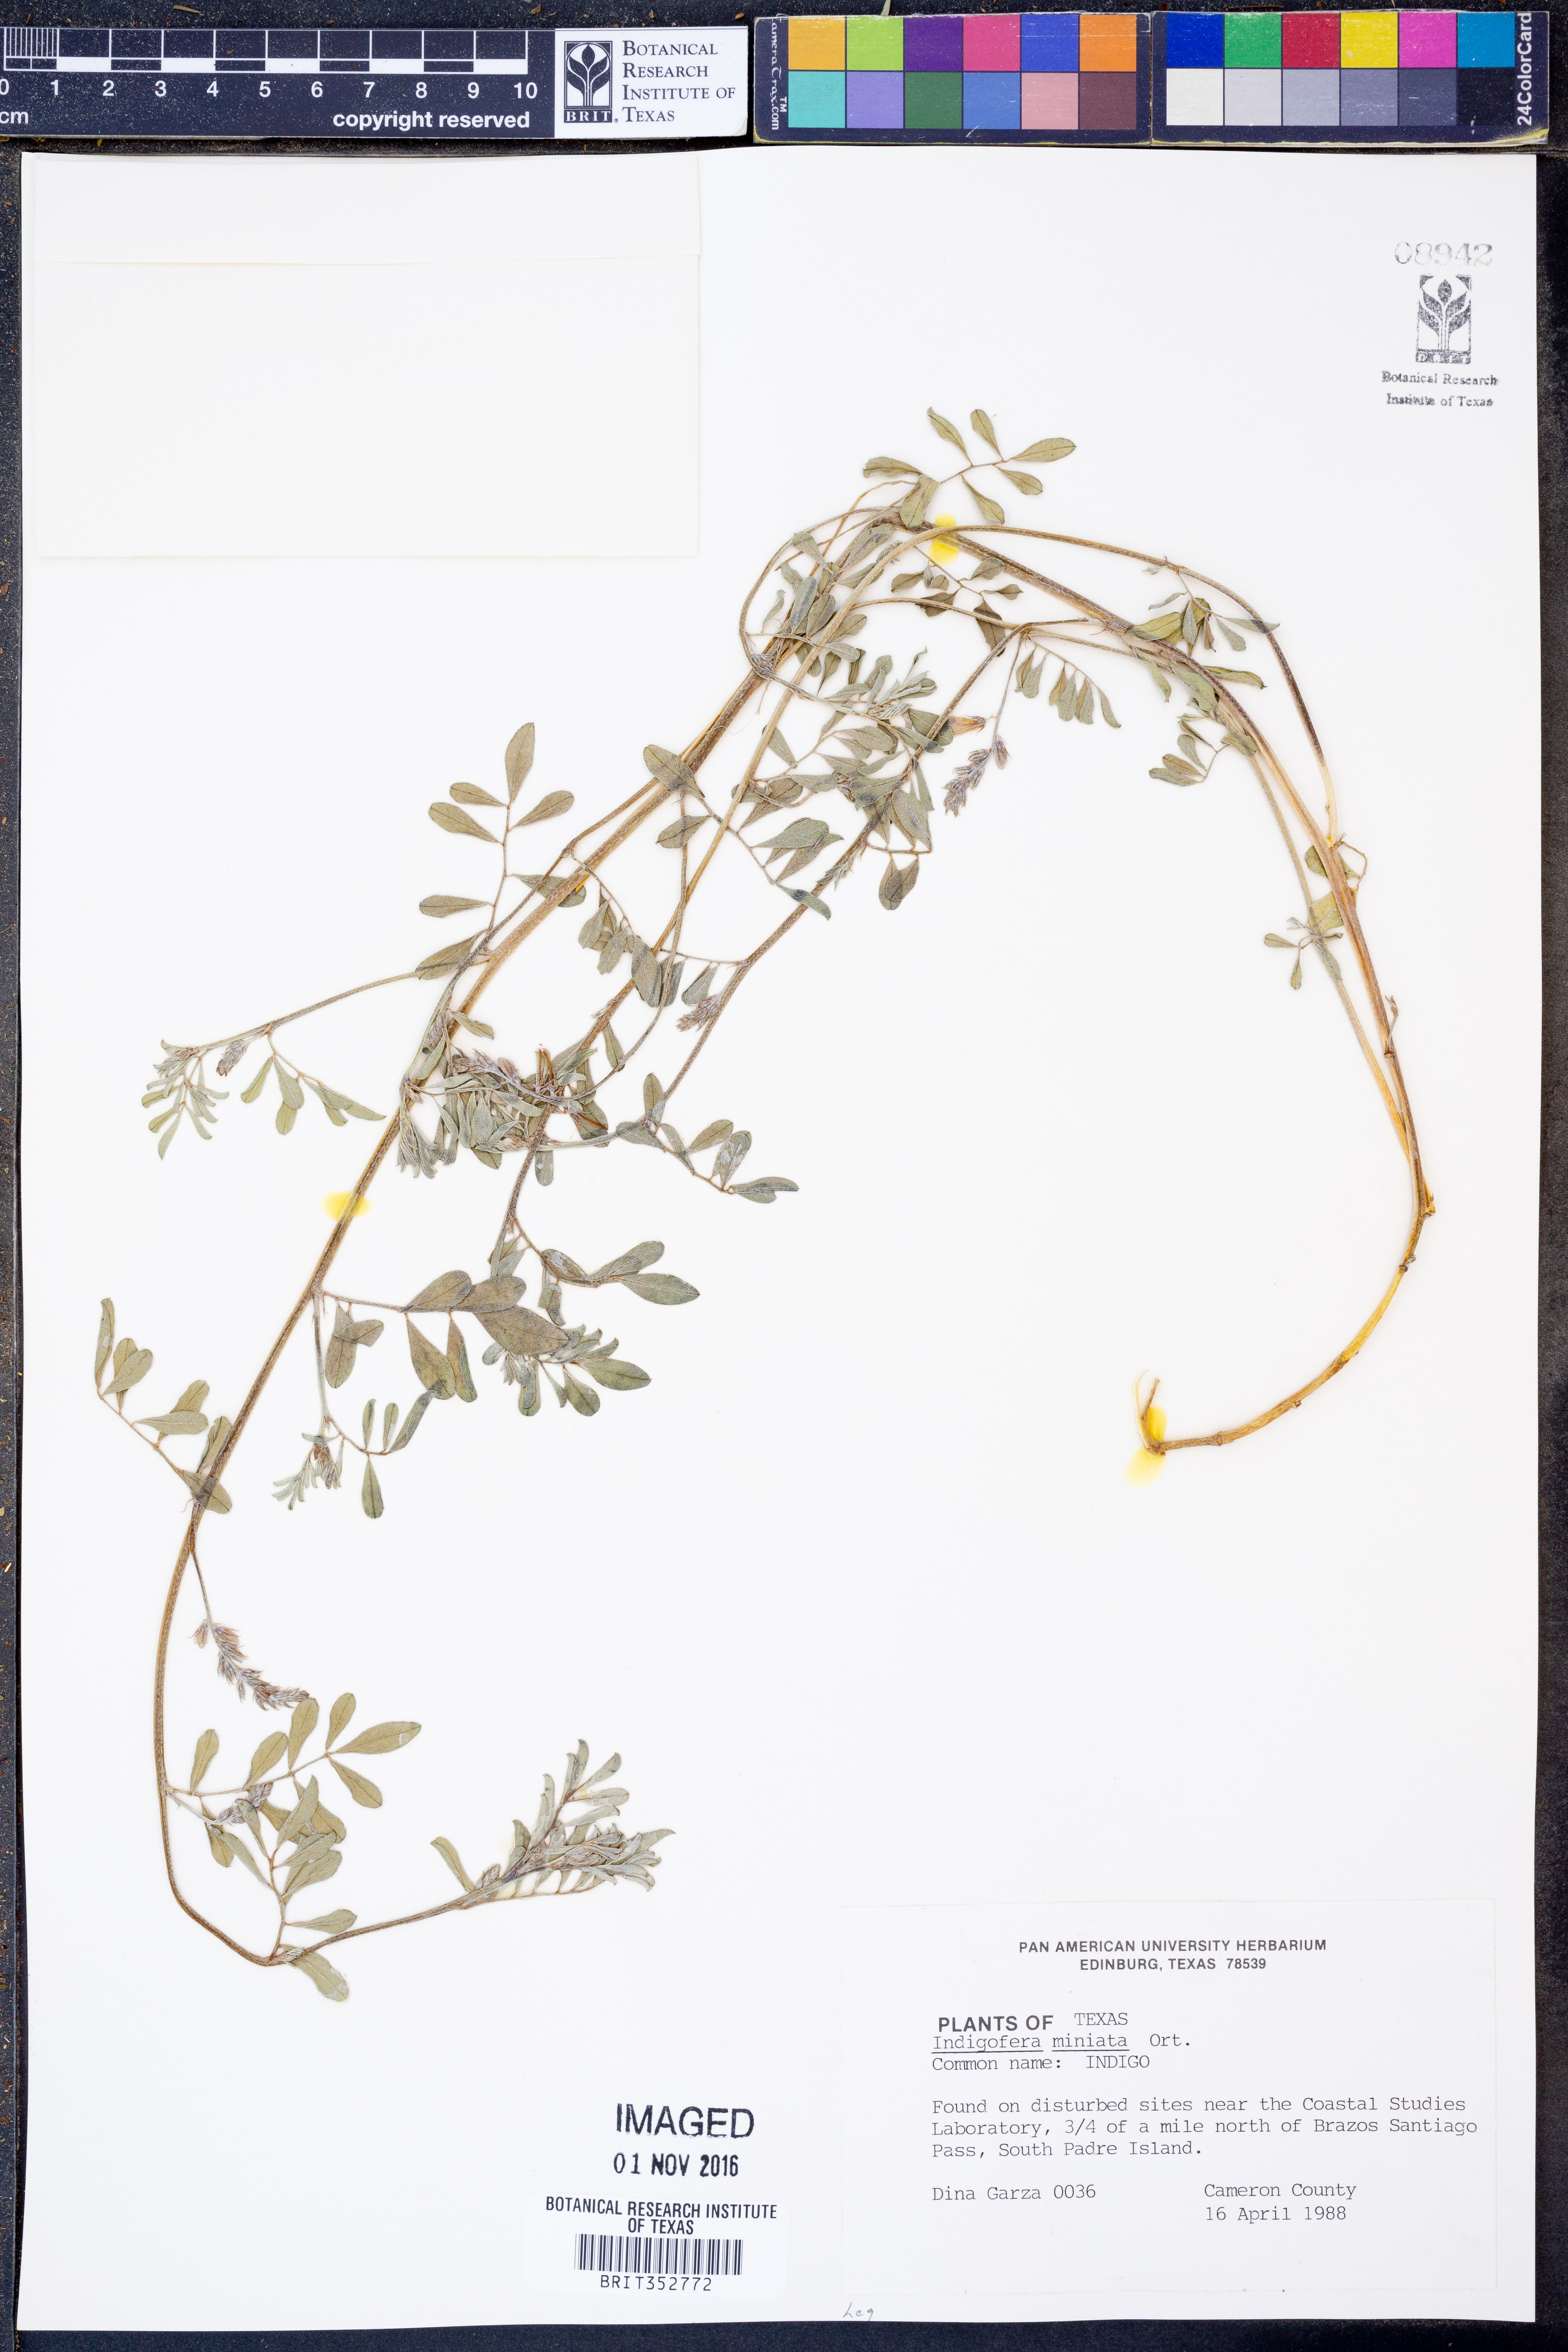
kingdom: Plantae
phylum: Tracheophyta
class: Magnoliopsida
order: Fabales
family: Fabaceae
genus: Indigofera
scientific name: Indigofera miniata
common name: Coast indigo
